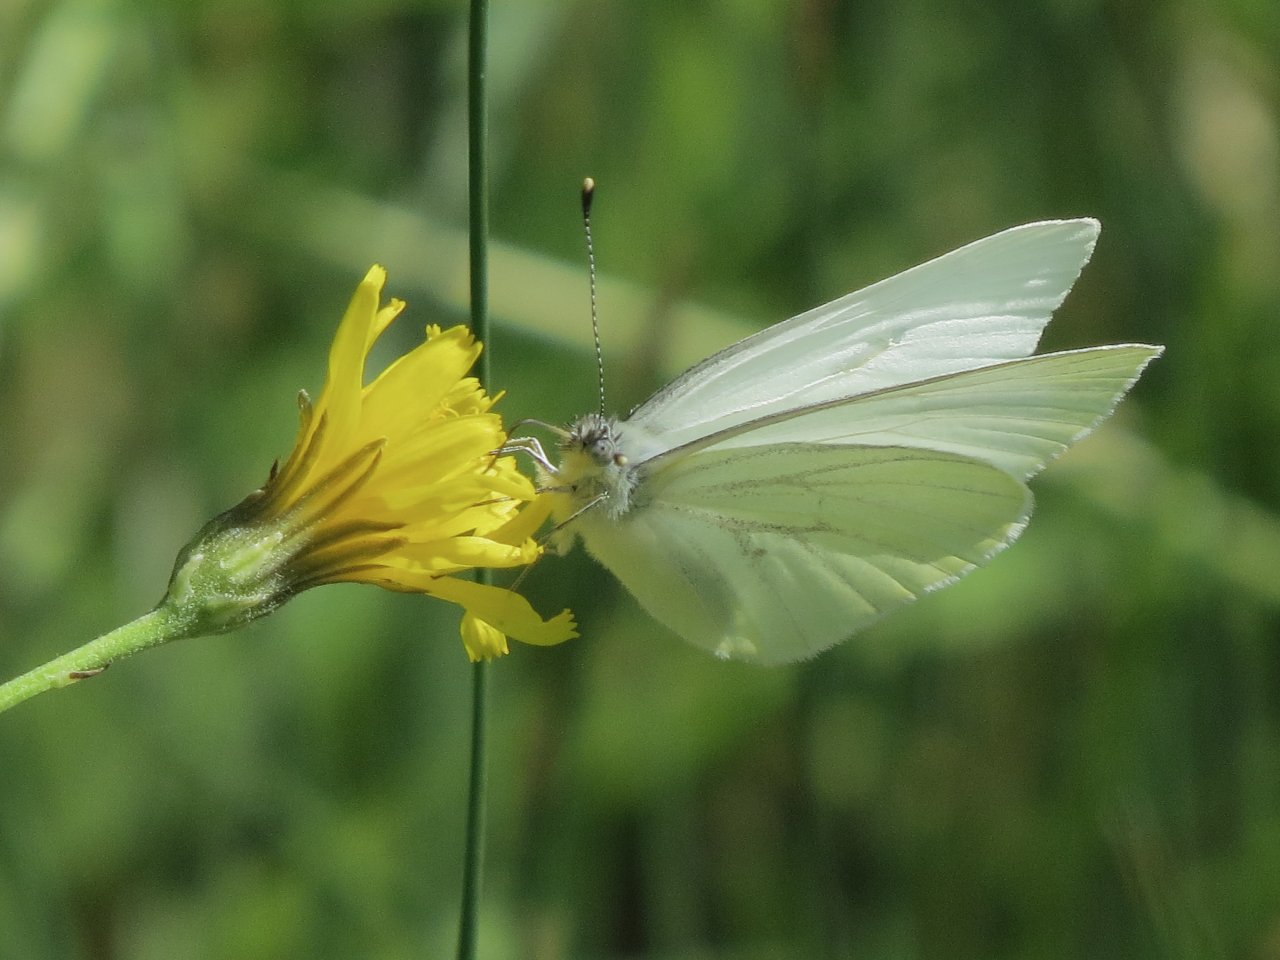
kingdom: Animalia
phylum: Arthropoda
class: Insecta
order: Lepidoptera
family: Pieridae
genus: Pieris
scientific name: Pieris oleracea
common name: Mustard White
